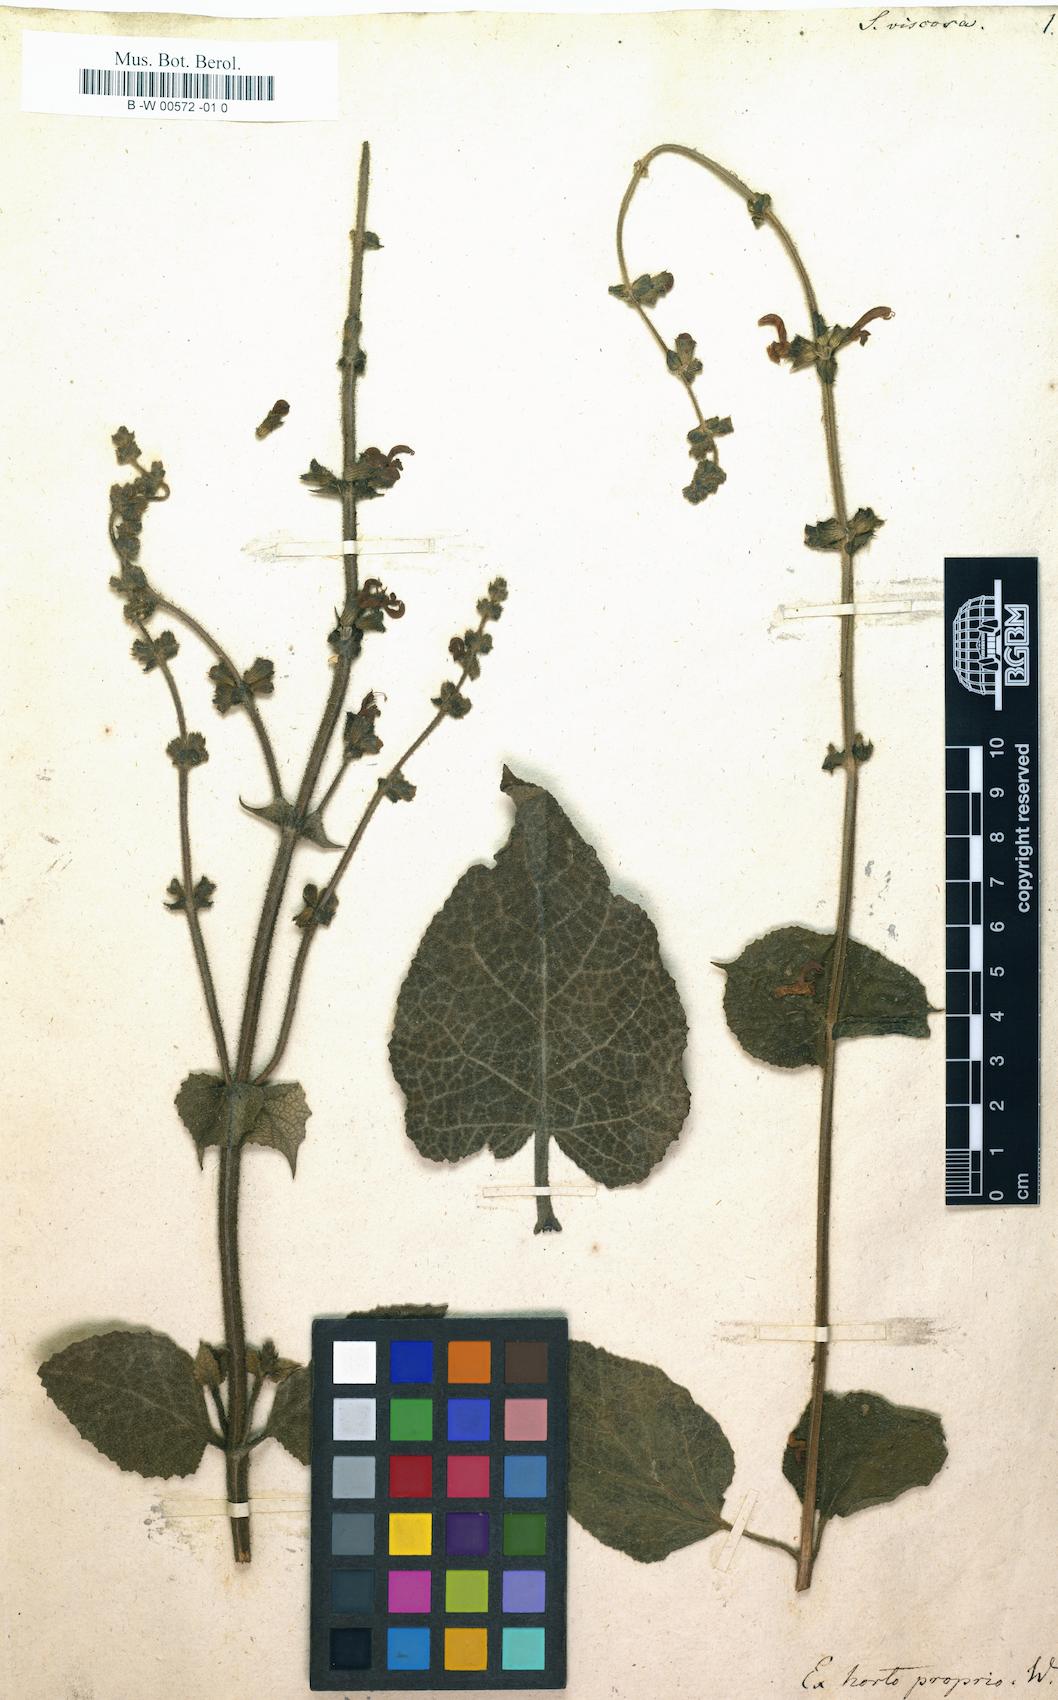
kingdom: Plantae
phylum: Tracheophyta
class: Magnoliopsida
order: Lamiales
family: Lamiaceae
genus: Salvia
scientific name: Salvia viscosa
